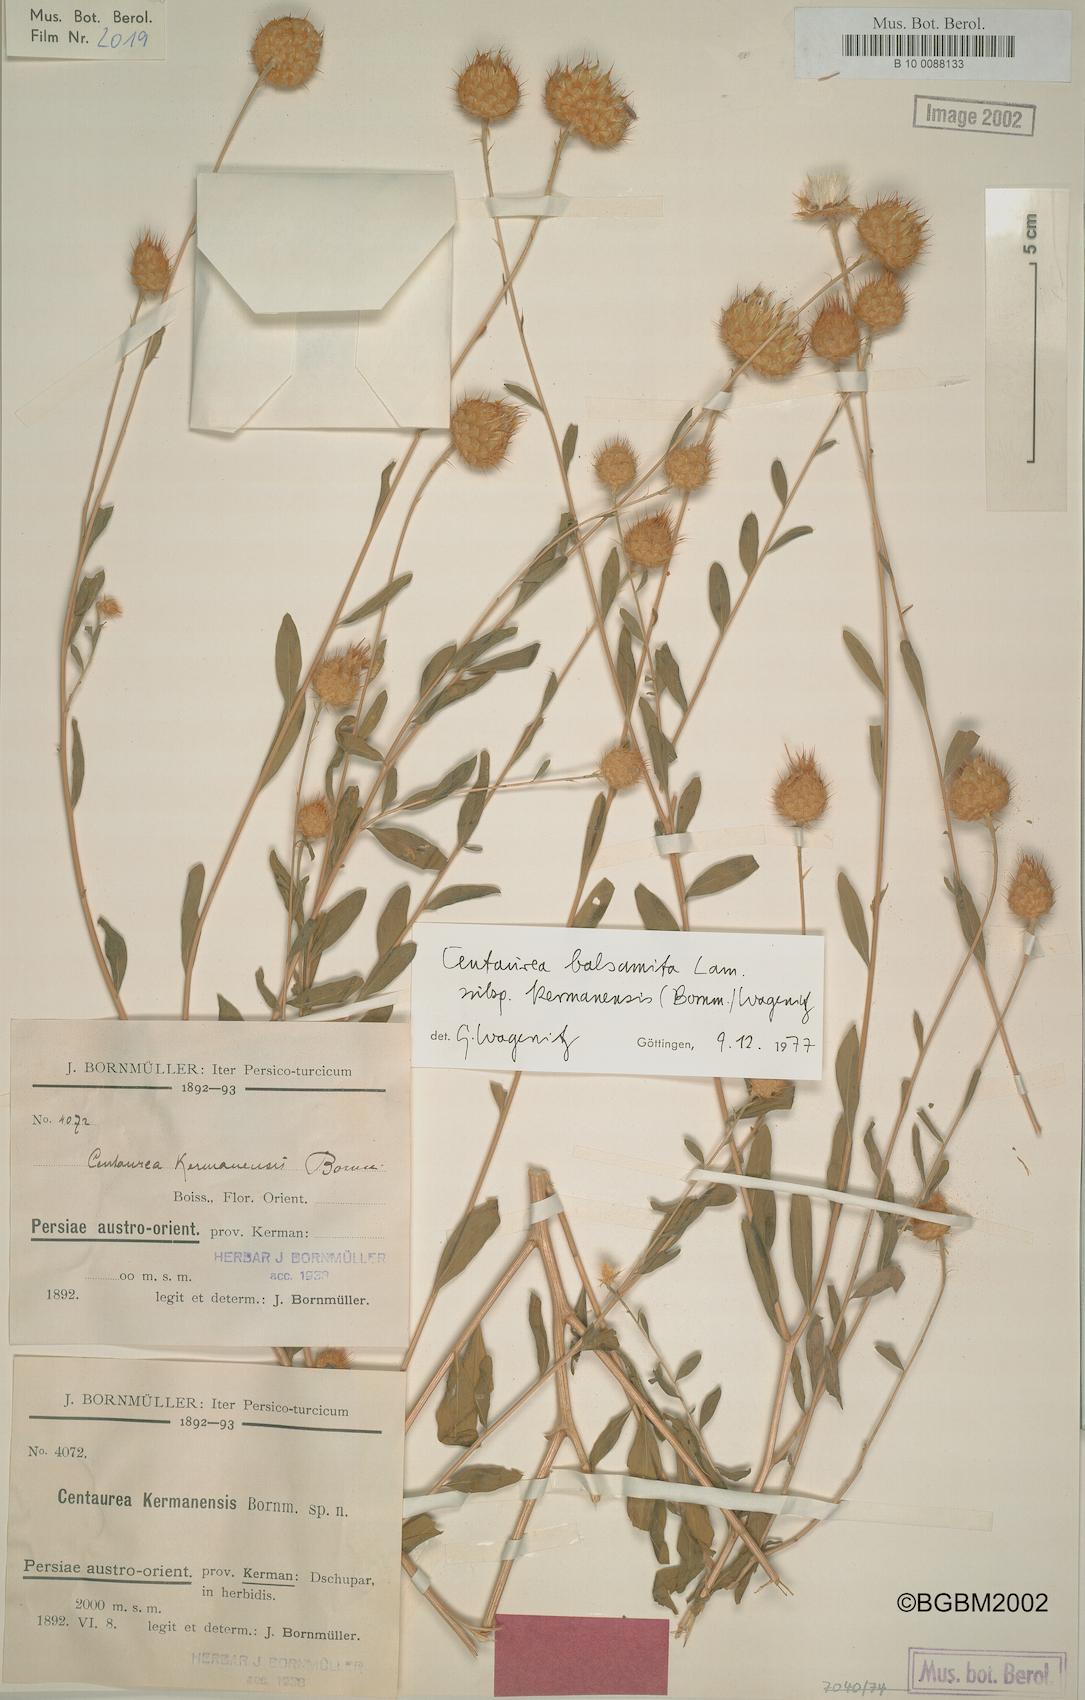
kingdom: Plantae
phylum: Tracheophyta
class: Magnoliopsida
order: Asterales
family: Asteraceae
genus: Stizolophus
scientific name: Stizolophus kermanensis
